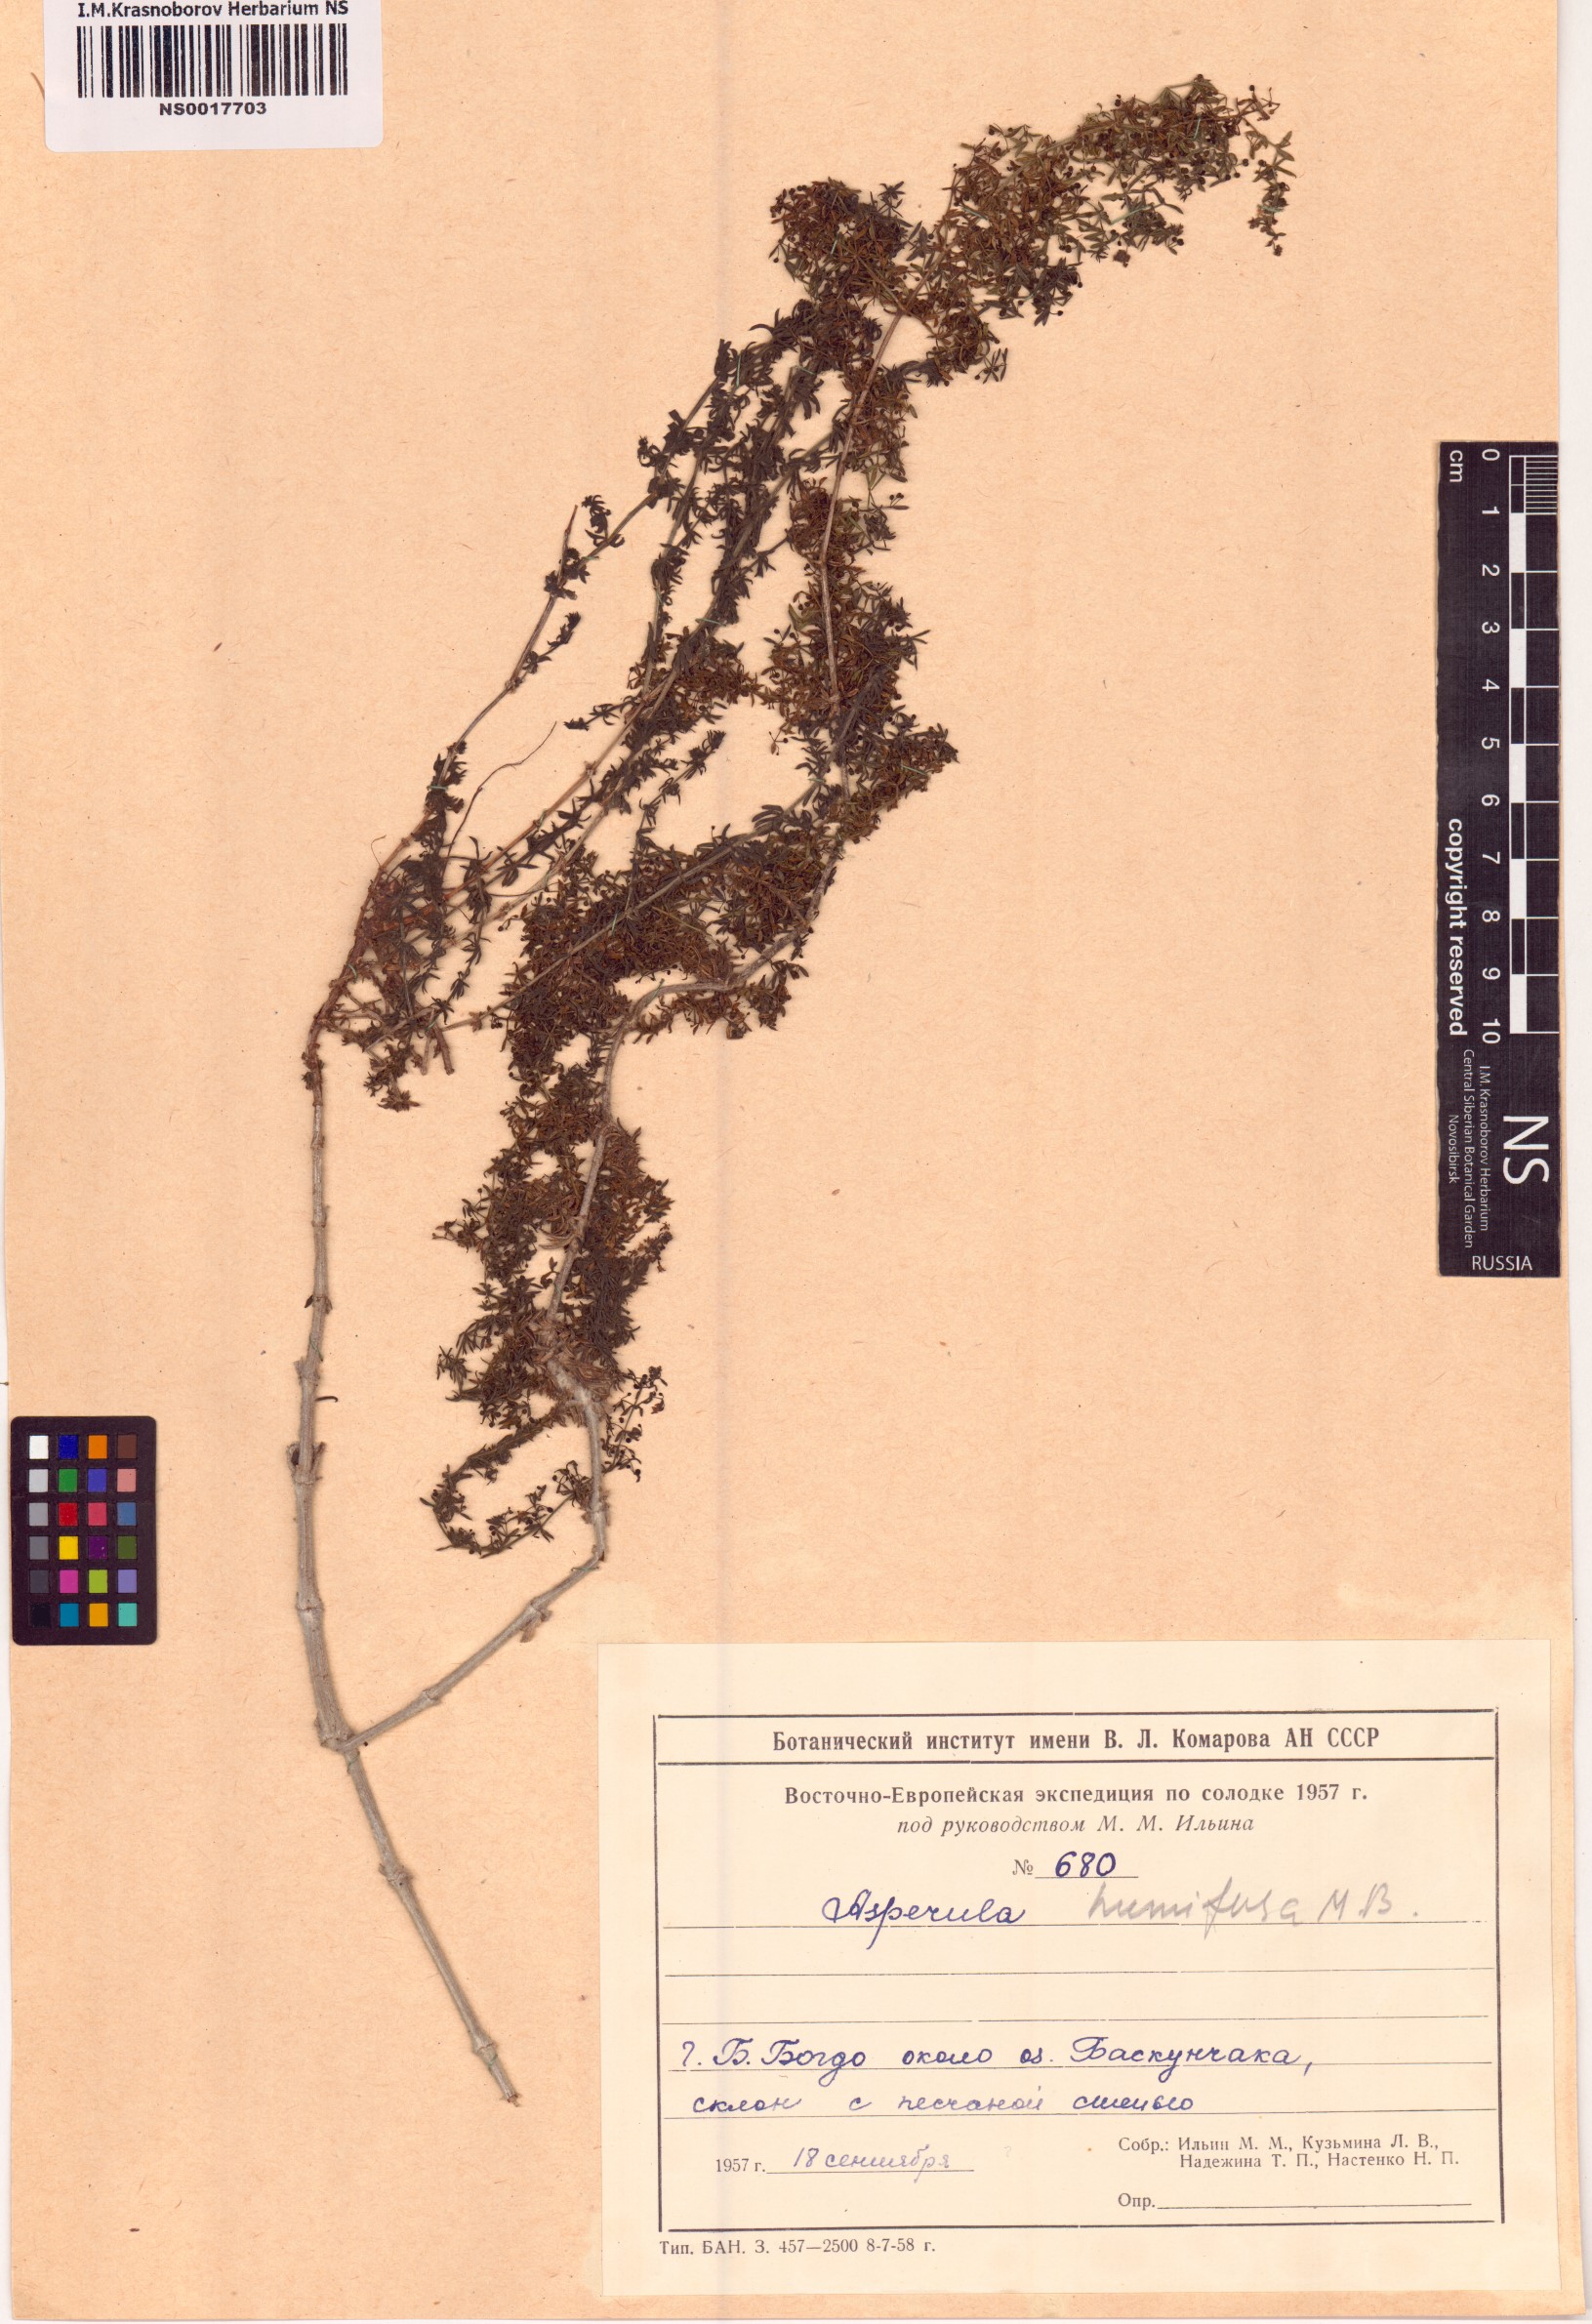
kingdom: Plantae
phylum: Tracheophyta
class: Magnoliopsida
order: Gentianales
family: Rubiaceae
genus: Galium
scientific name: Galium humifusum
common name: Spreading bedstraw
